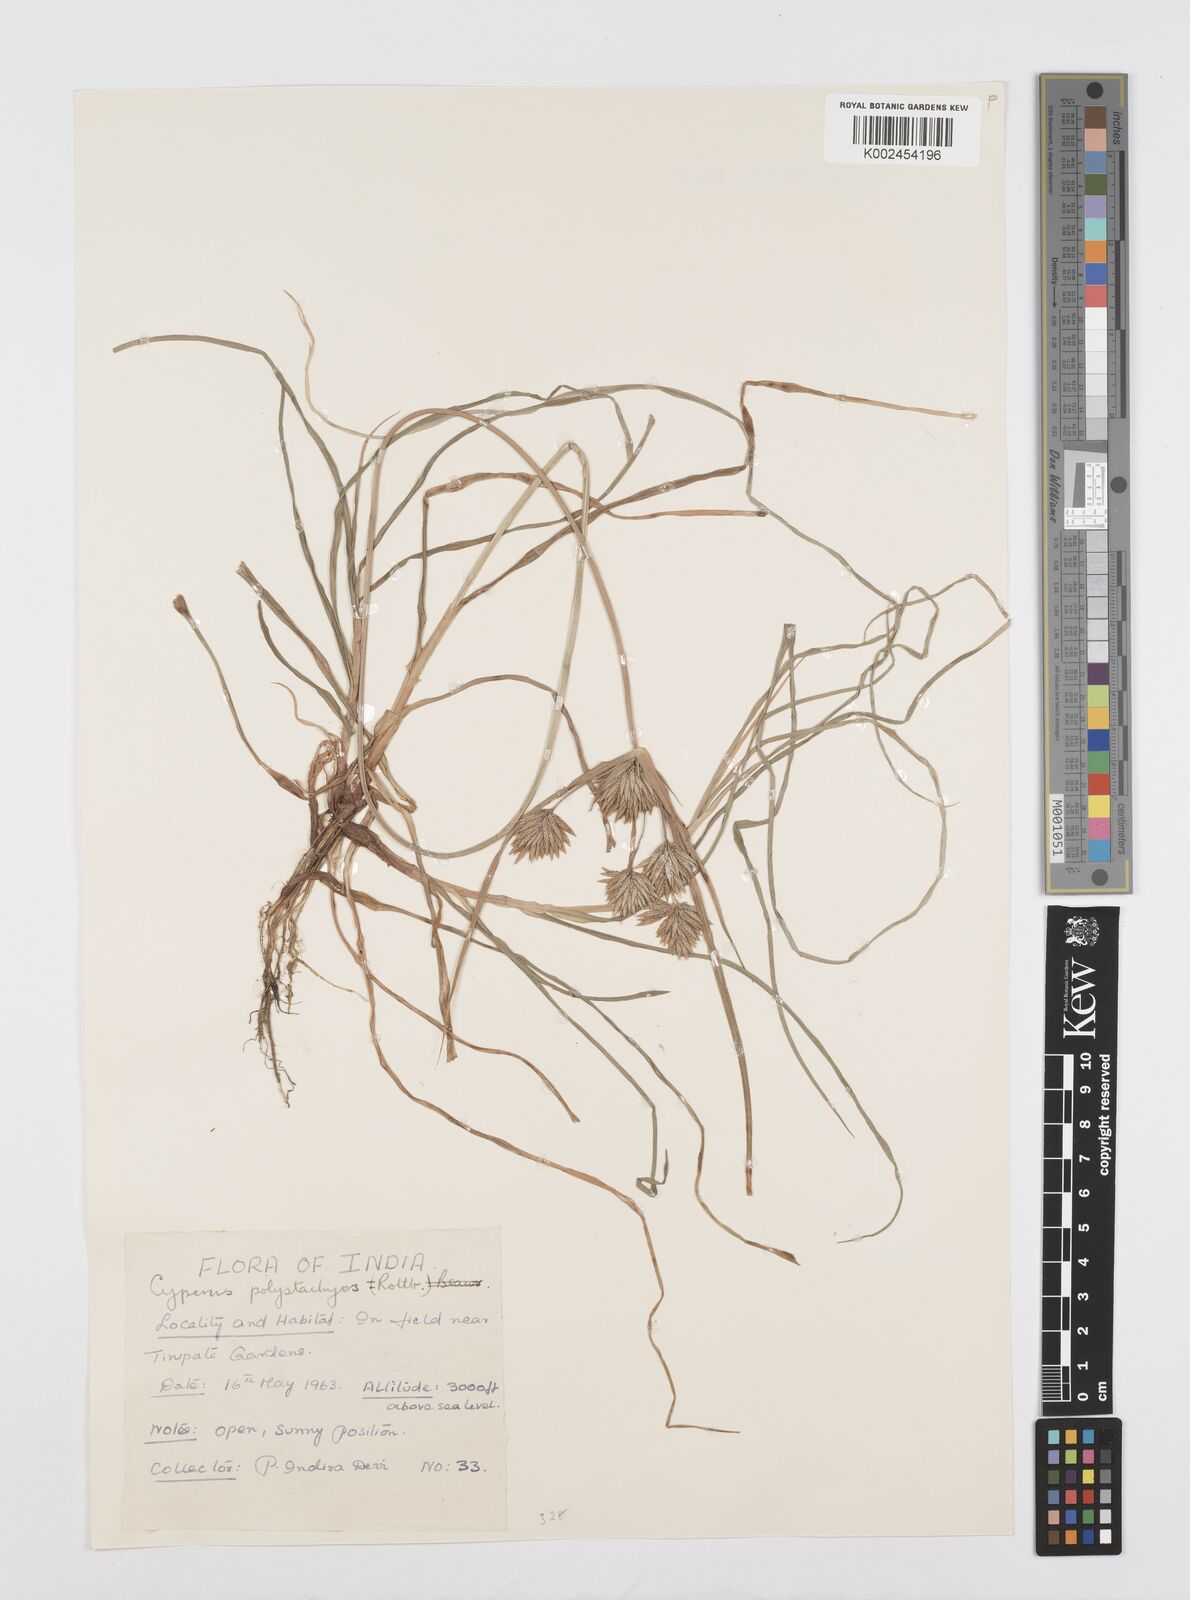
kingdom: Plantae
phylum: Tracheophyta
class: Liliopsida
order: Poales
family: Cyperaceae
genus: Cyperus
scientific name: Cyperus polystachyos
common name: Bunchy flat sedge
